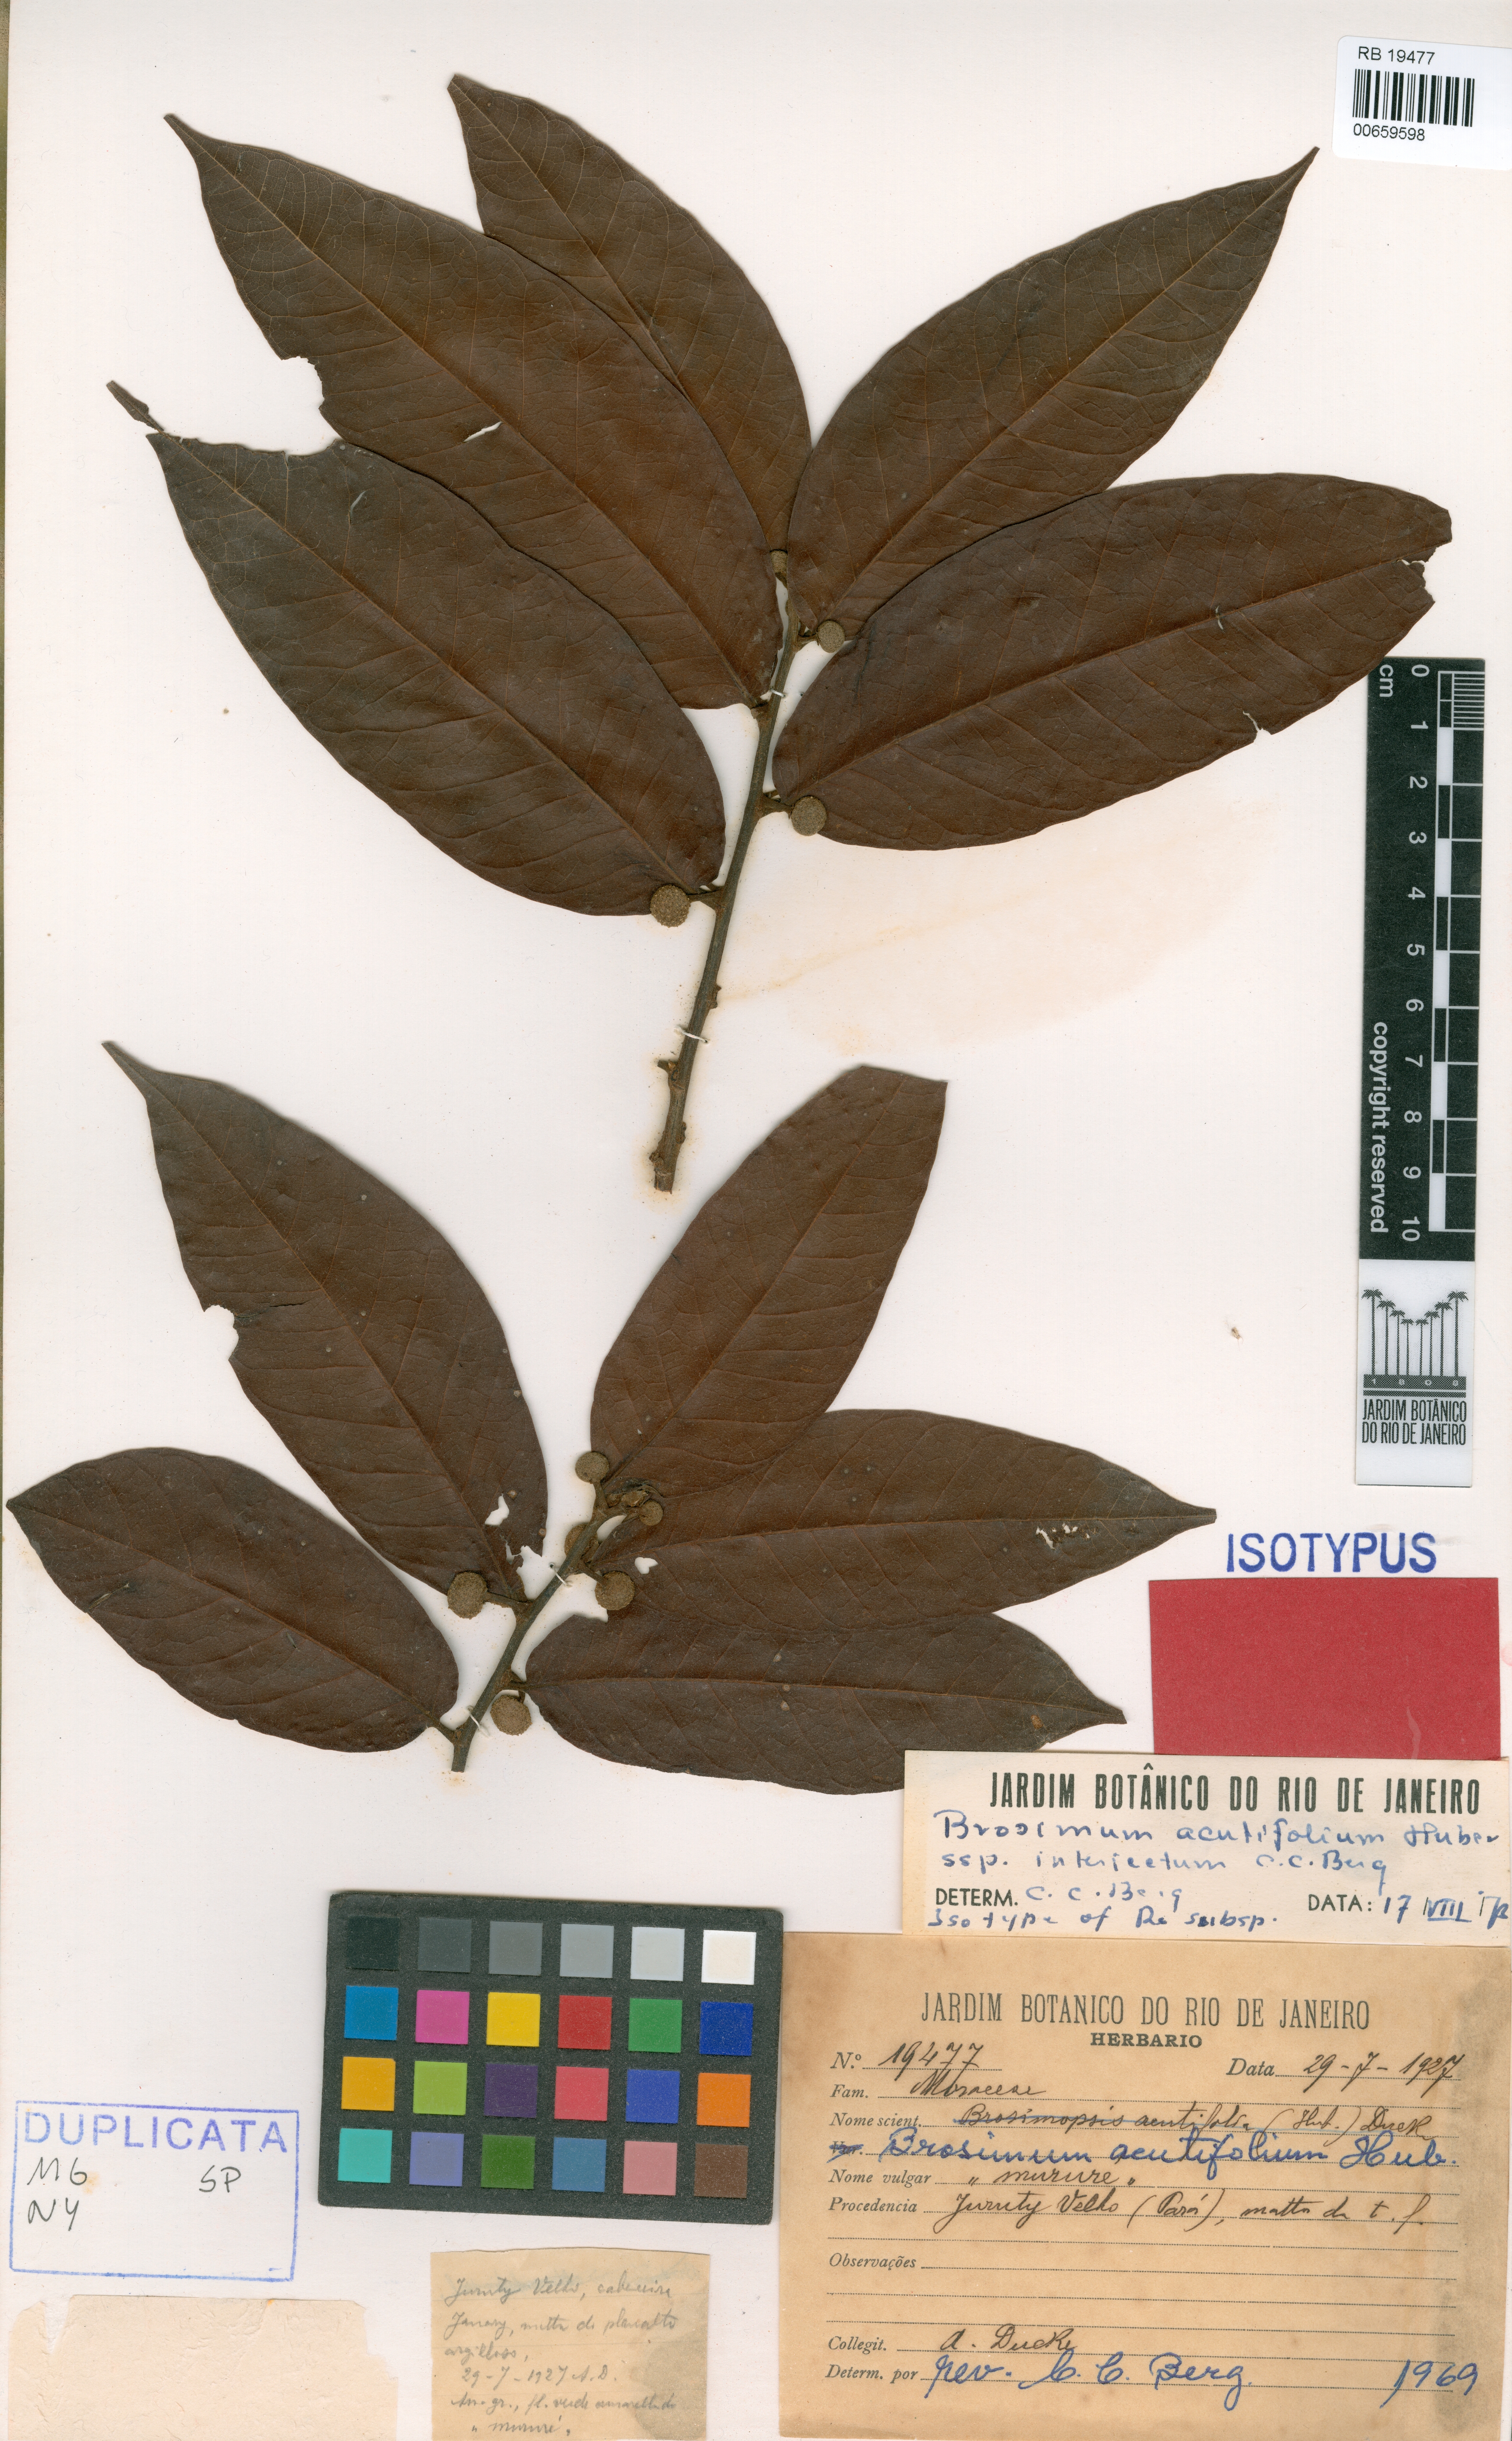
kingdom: Plantae
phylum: Tracheophyta
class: Magnoliopsida
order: Rosales
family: Moraceae
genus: Brosimum
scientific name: Brosimum acutifolium
